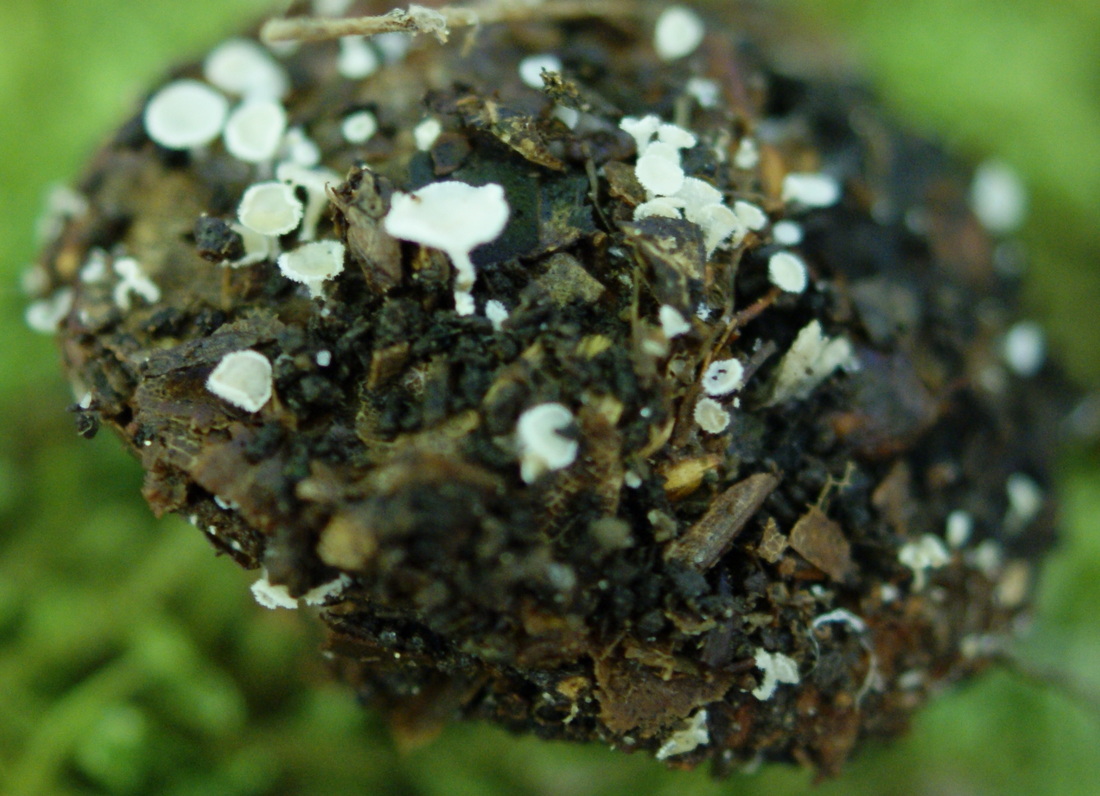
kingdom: Fungi
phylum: Ascomycota
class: Leotiomycetes
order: Helotiales
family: Lachnaceae
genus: Lachnum
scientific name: Lachnum virgineum
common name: jomfru-frynseskive
